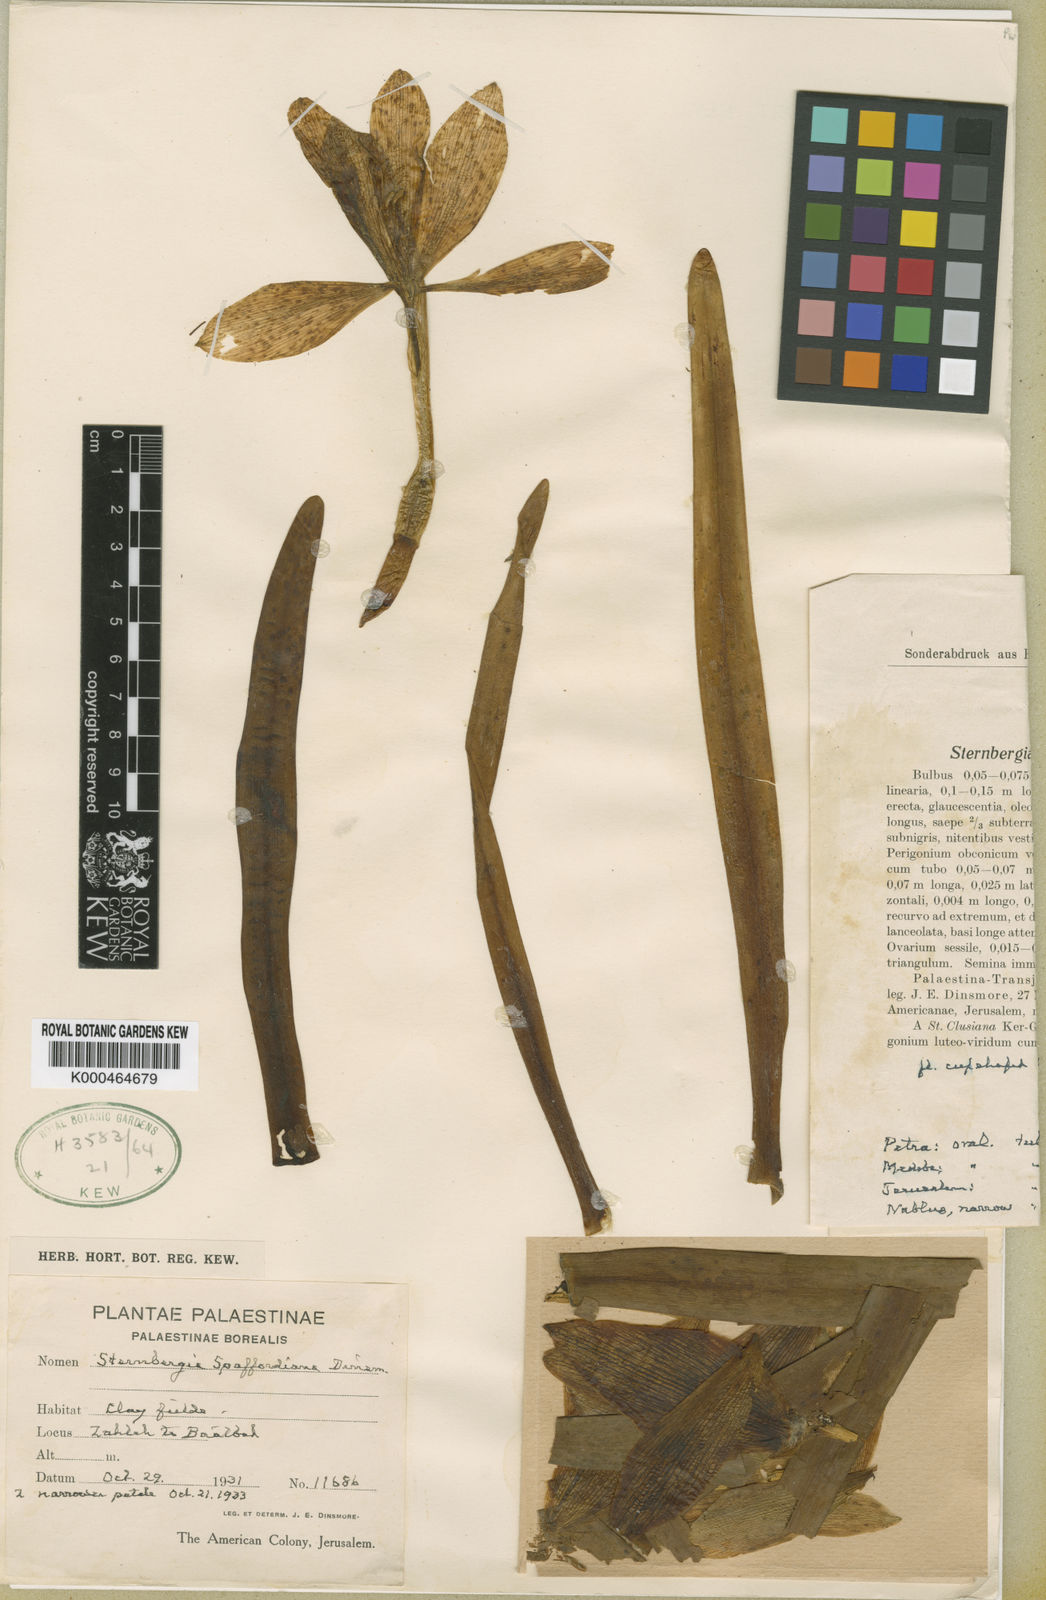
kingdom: Plantae
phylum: Tracheophyta
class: Liliopsida
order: Asparagales
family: Amaryllidaceae
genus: Sternbergia
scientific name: Sternbergia
